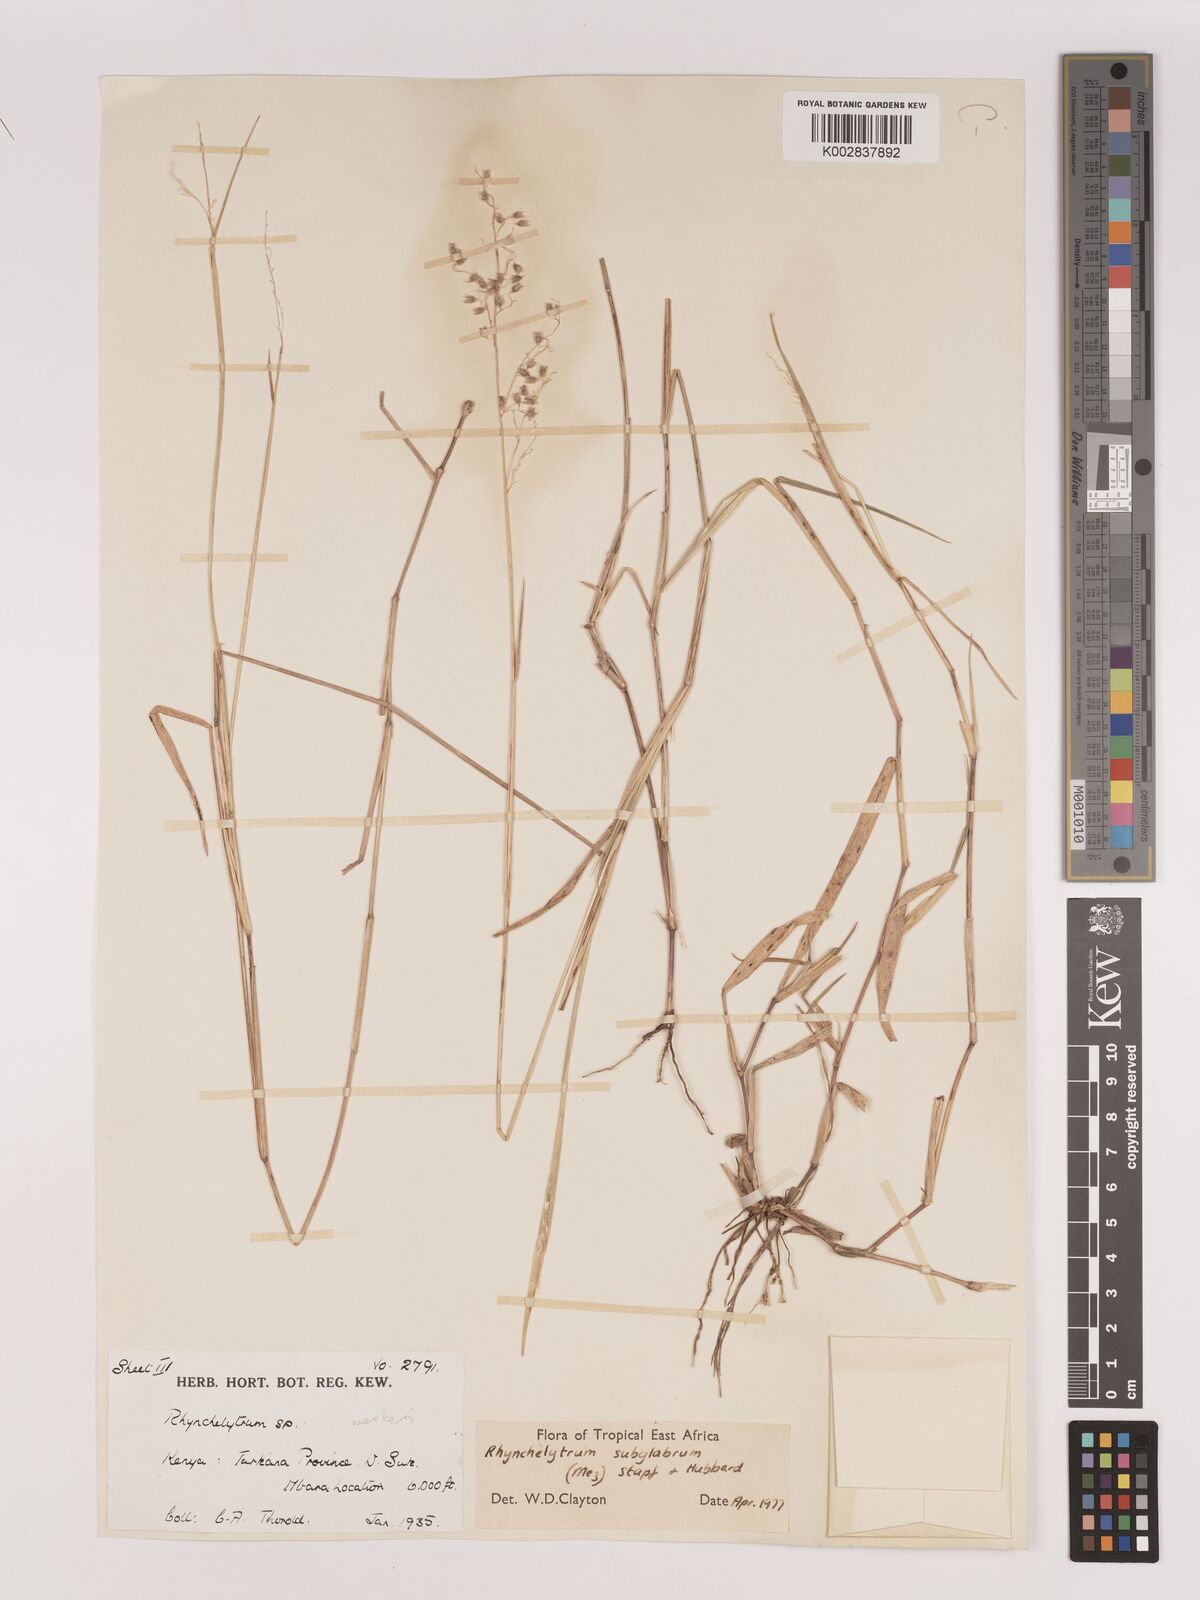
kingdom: Plantae
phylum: Tracheophyta
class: Liliopsida
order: Poales
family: Poaceae
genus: Melinis
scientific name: Melinis subglabra
